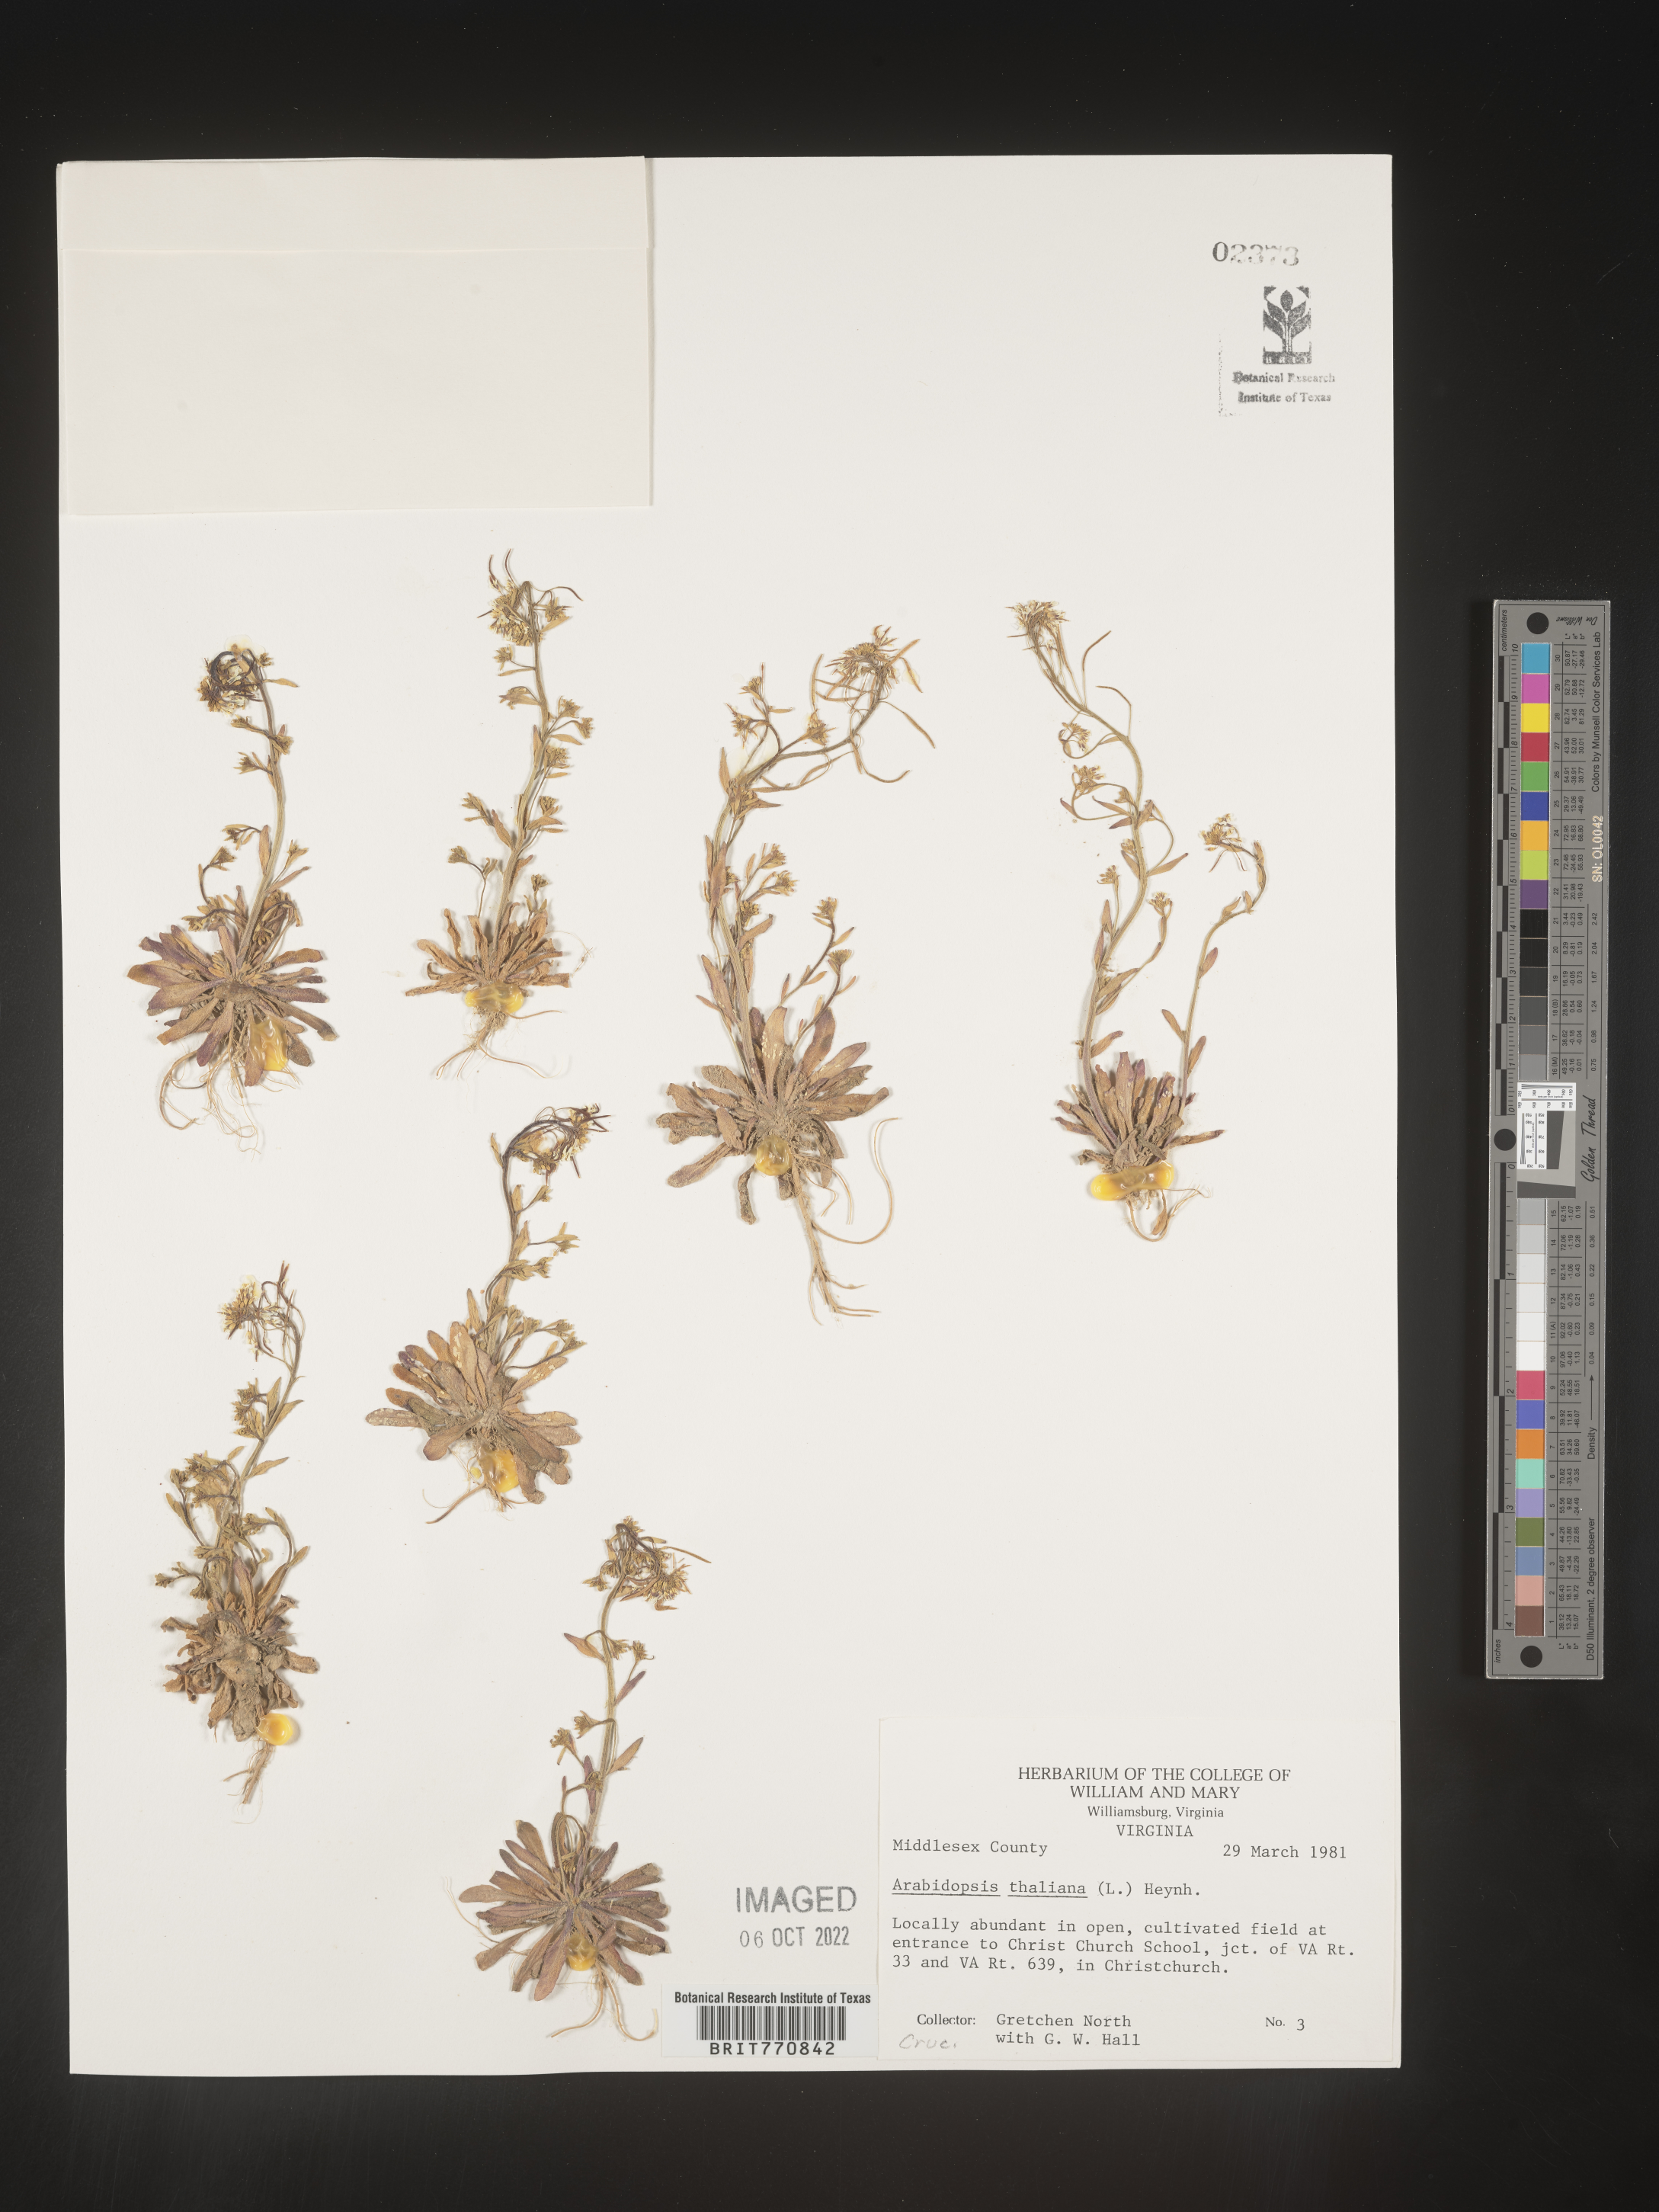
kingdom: Plantae
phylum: Tracheophyta
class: Magnoliopsida
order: Brassicales
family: Brassicaceae
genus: Arabidopsis
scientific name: Arabidopsis thaliana
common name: Thale cress
